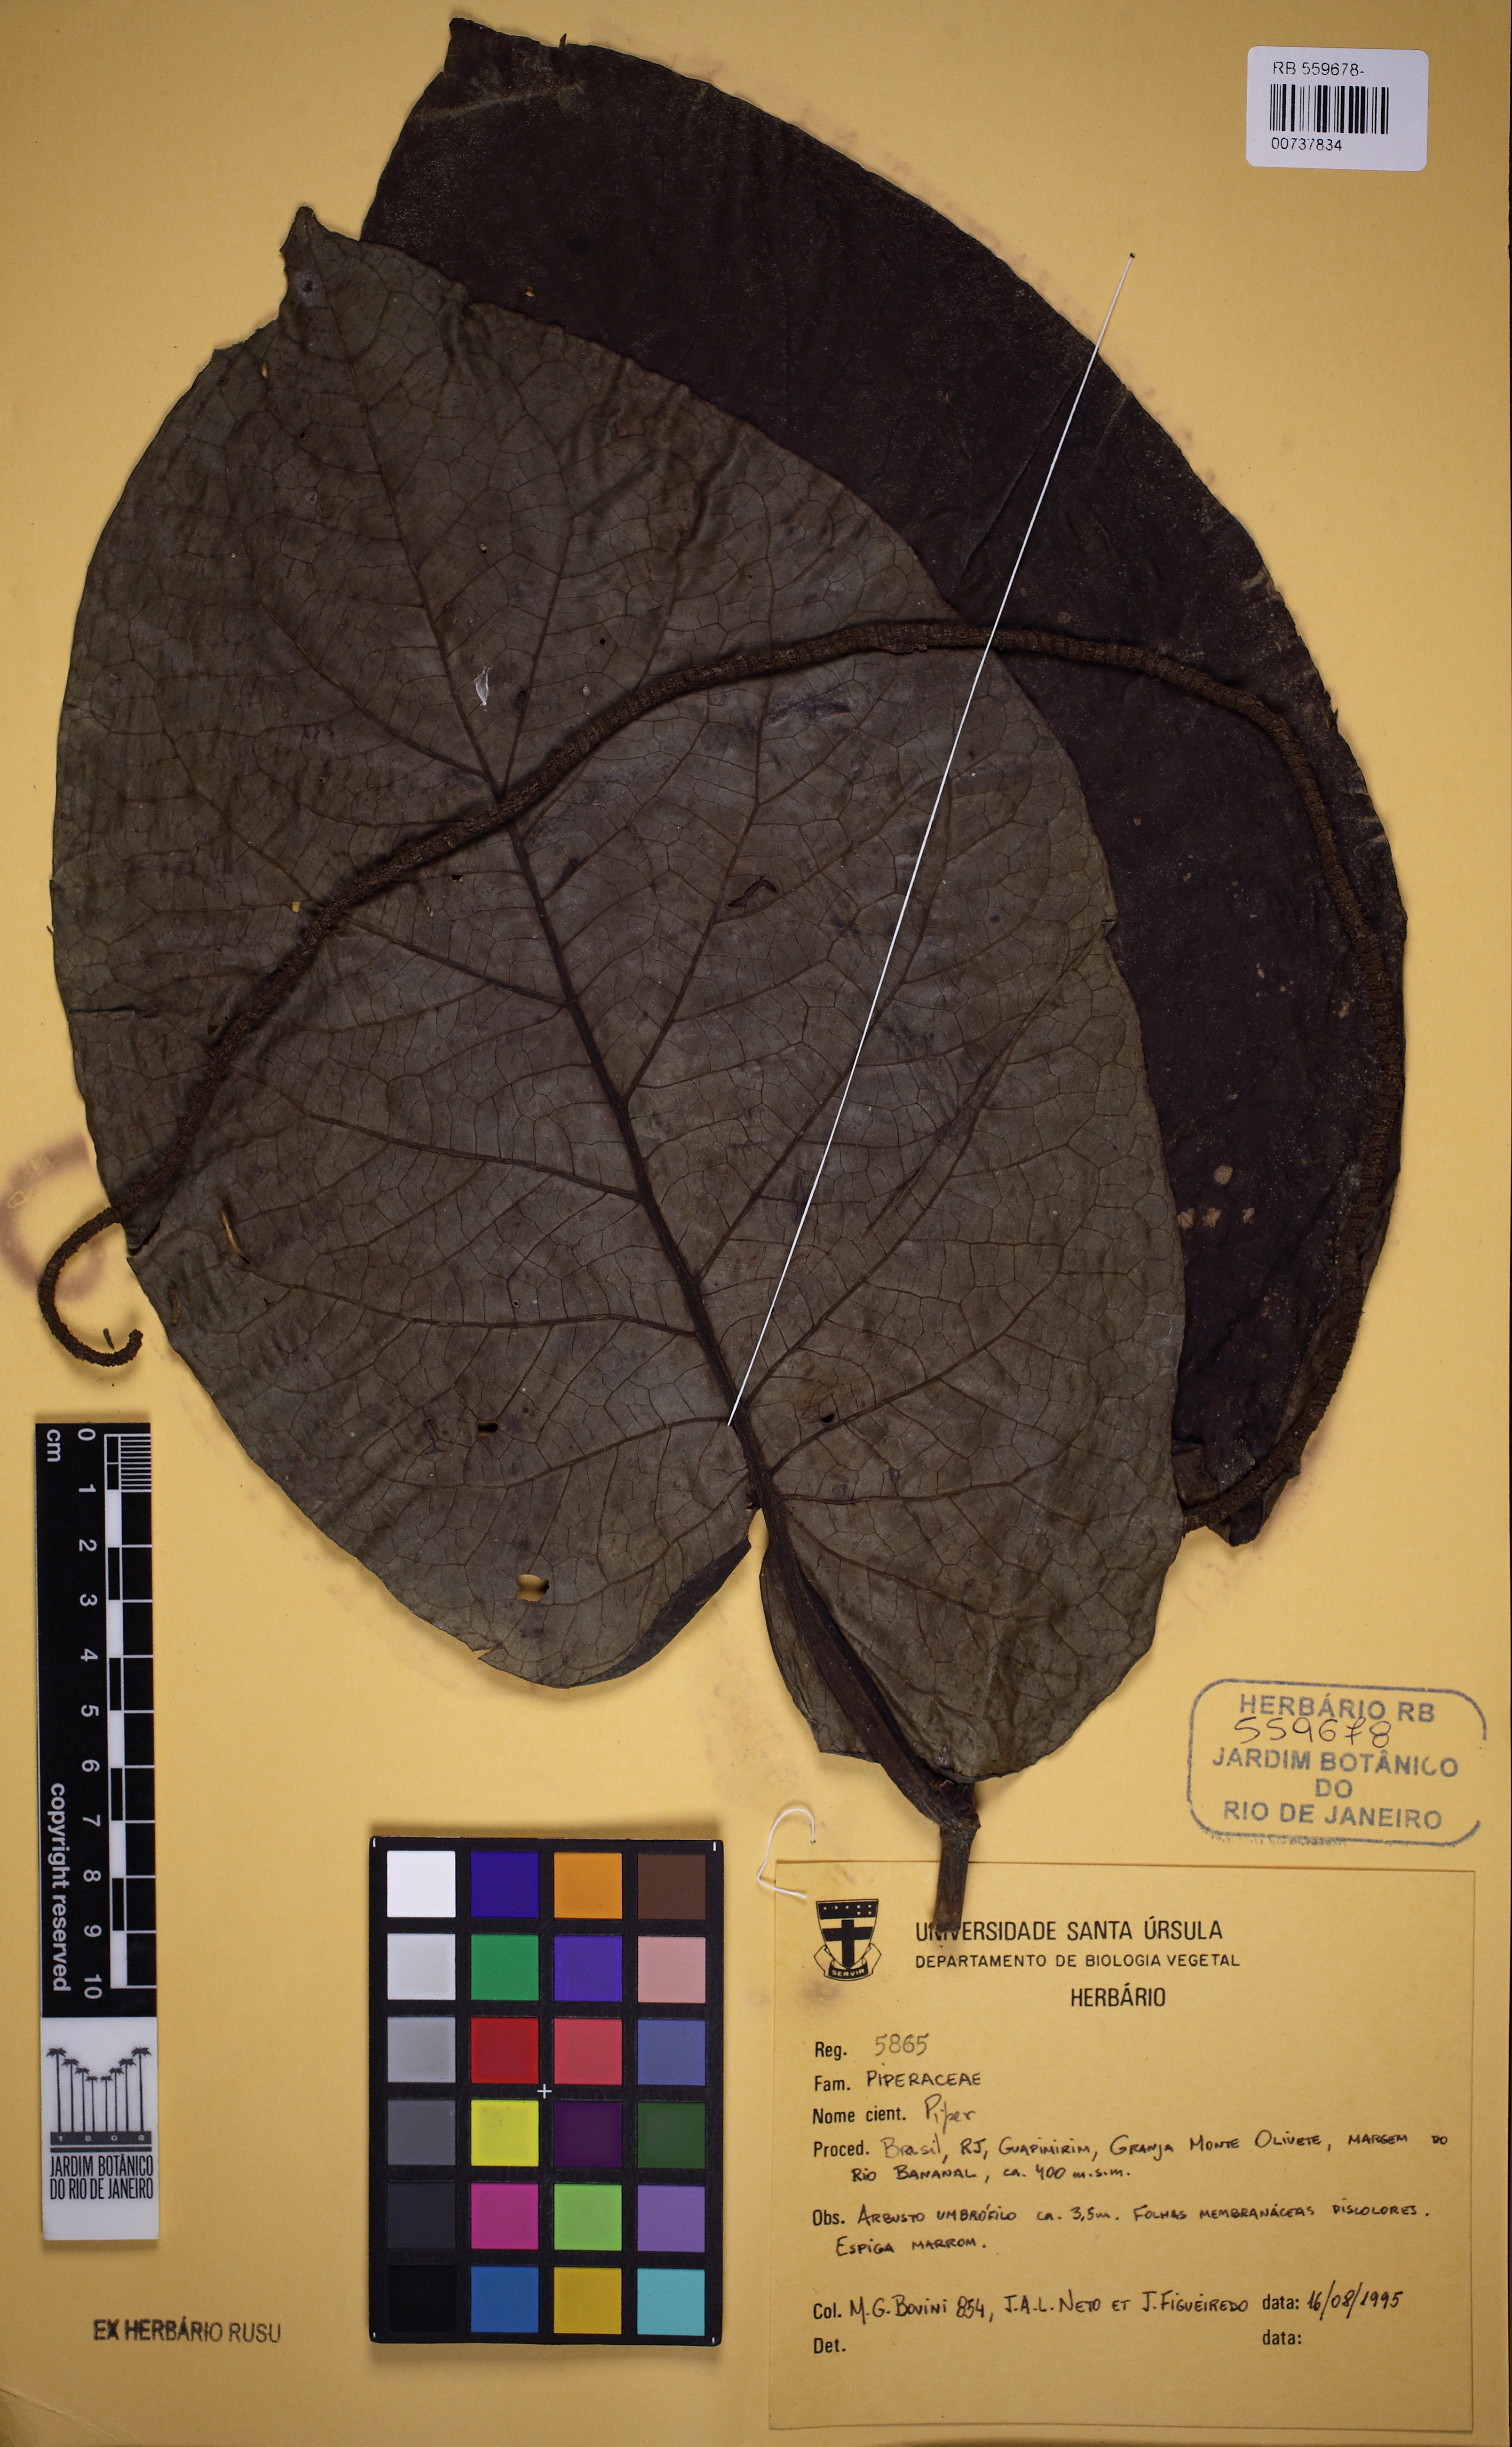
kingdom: Plantae
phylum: Tracheophyta
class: Magnoliopsida
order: Piperales
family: Piperaceae
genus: Piper
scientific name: Piper cernuum
